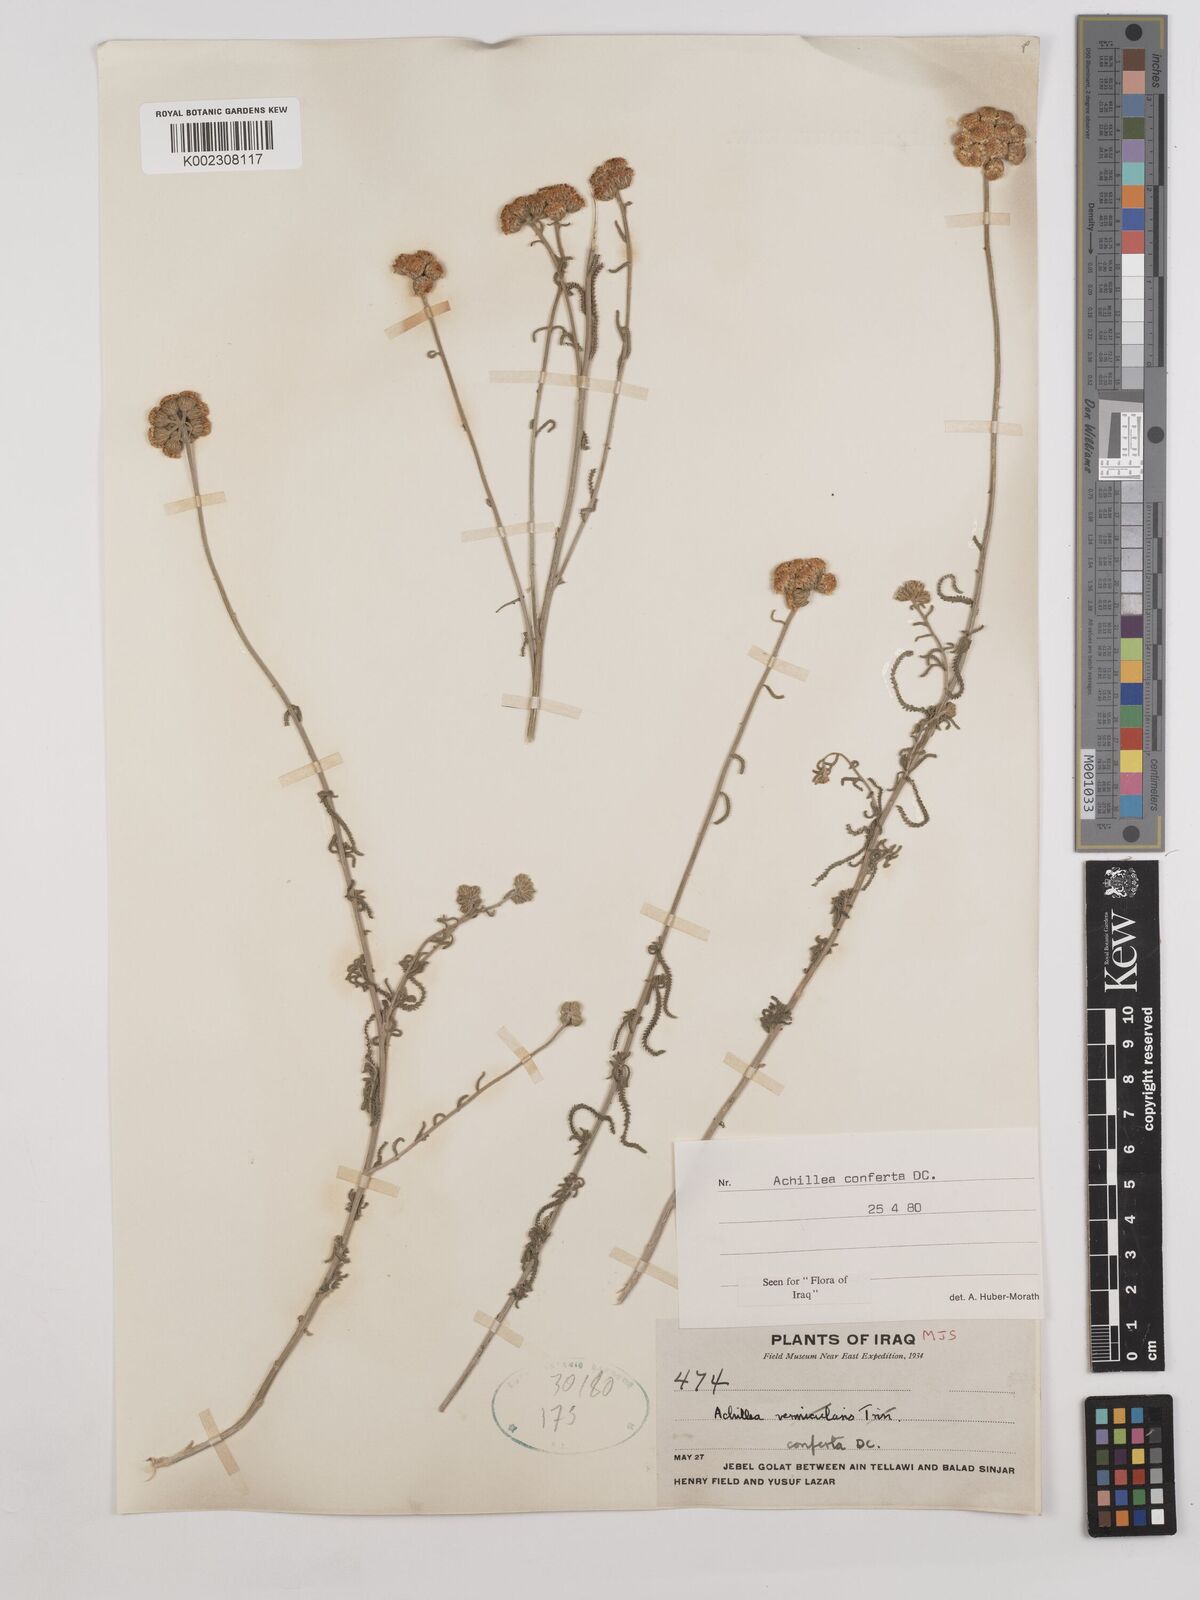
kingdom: Plantae
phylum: Tracheophyta
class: Magnoliopsida
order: Asterales
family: Asteraceae
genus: Achillea
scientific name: Achillea conferta
